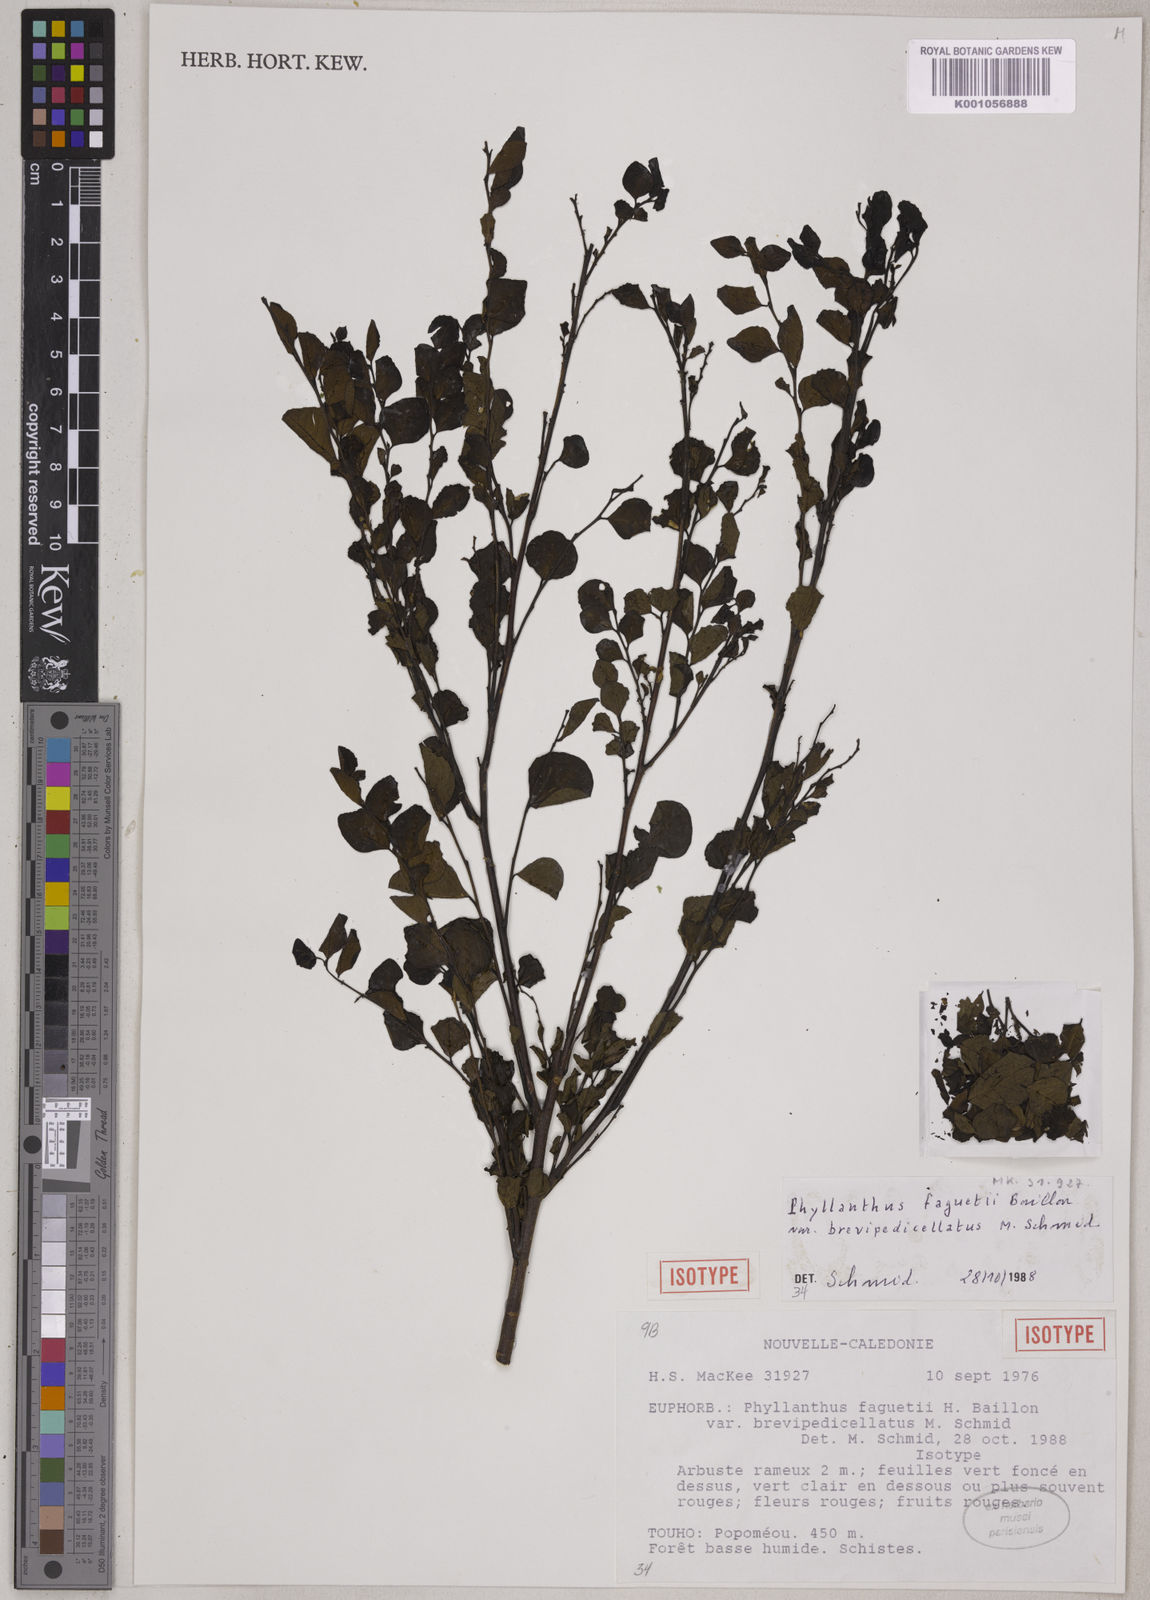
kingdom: Plantae
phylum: Tracheophyta
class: Magnoliopsida
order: Malpighiales
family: Phyllanthaceae
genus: Phyllanthus
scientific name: Phyllanthus faguetii
